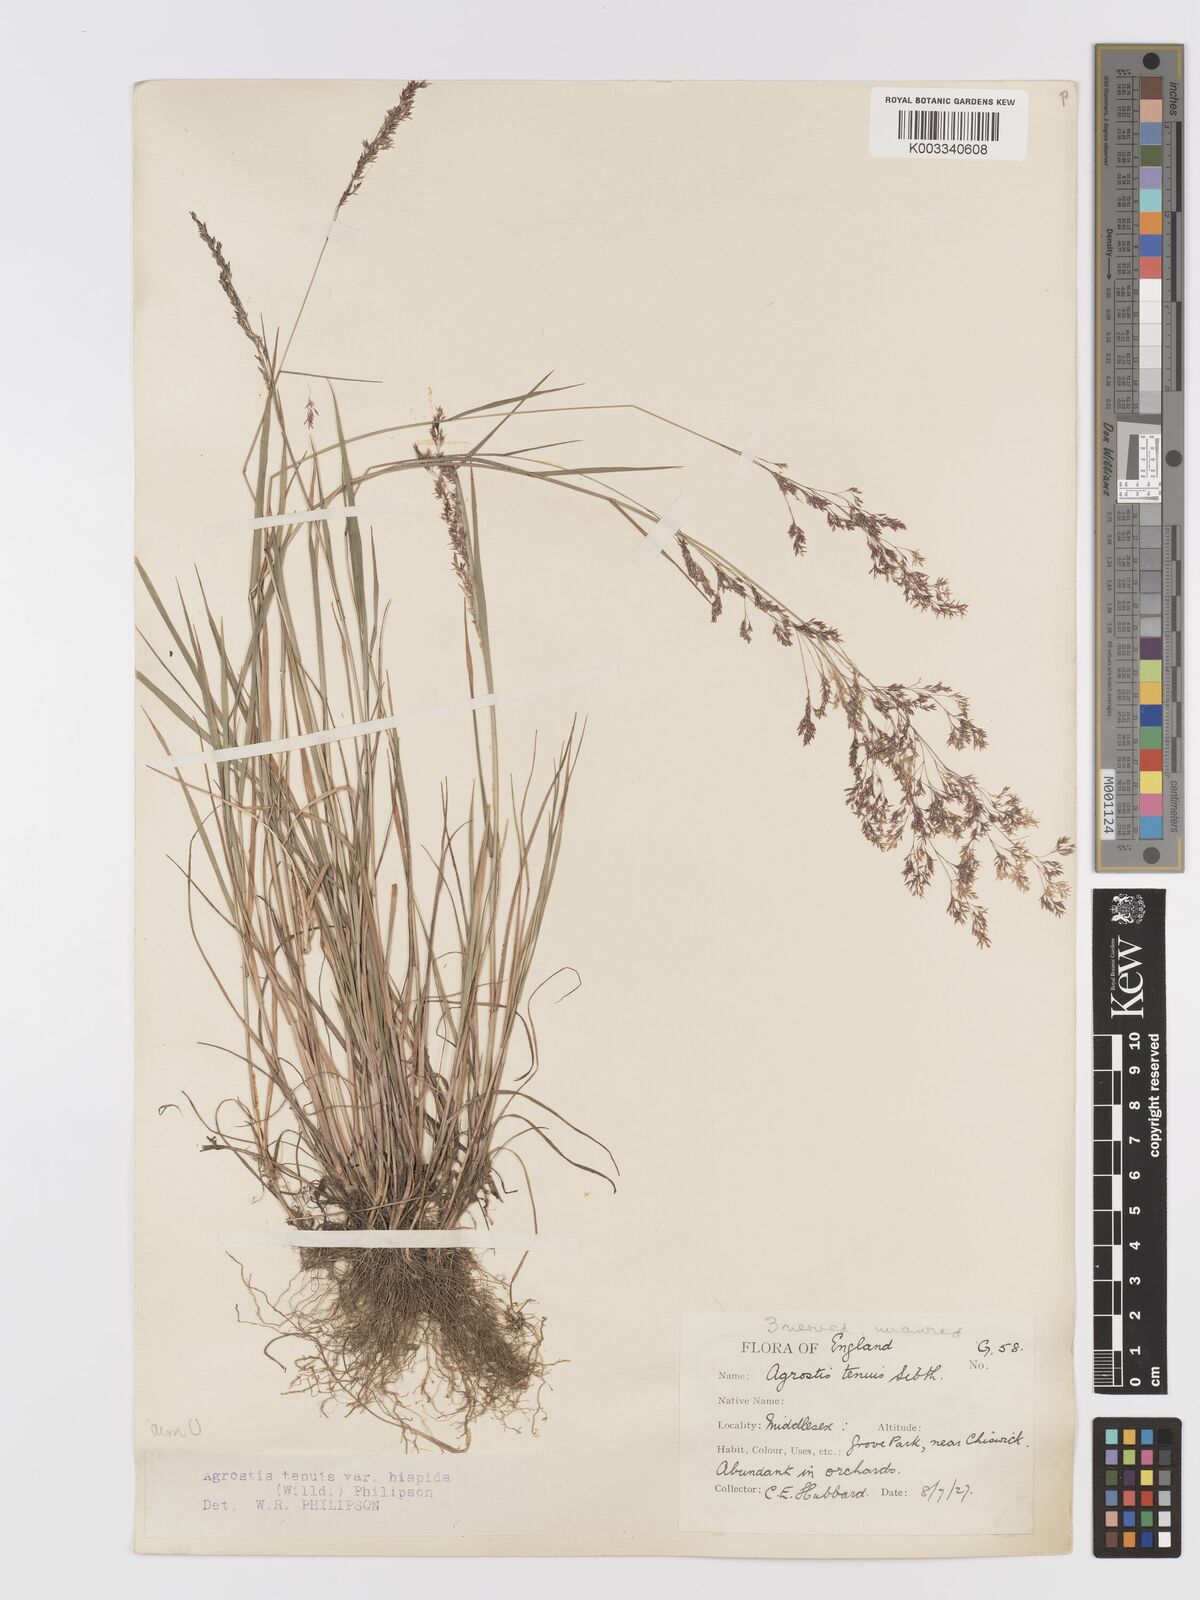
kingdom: Plantae
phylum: Tracheophyta
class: Liliopsida
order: Poales
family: Poaceae
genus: Agrostis
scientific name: Agrostis capillaris
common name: Colonial bentgrass
